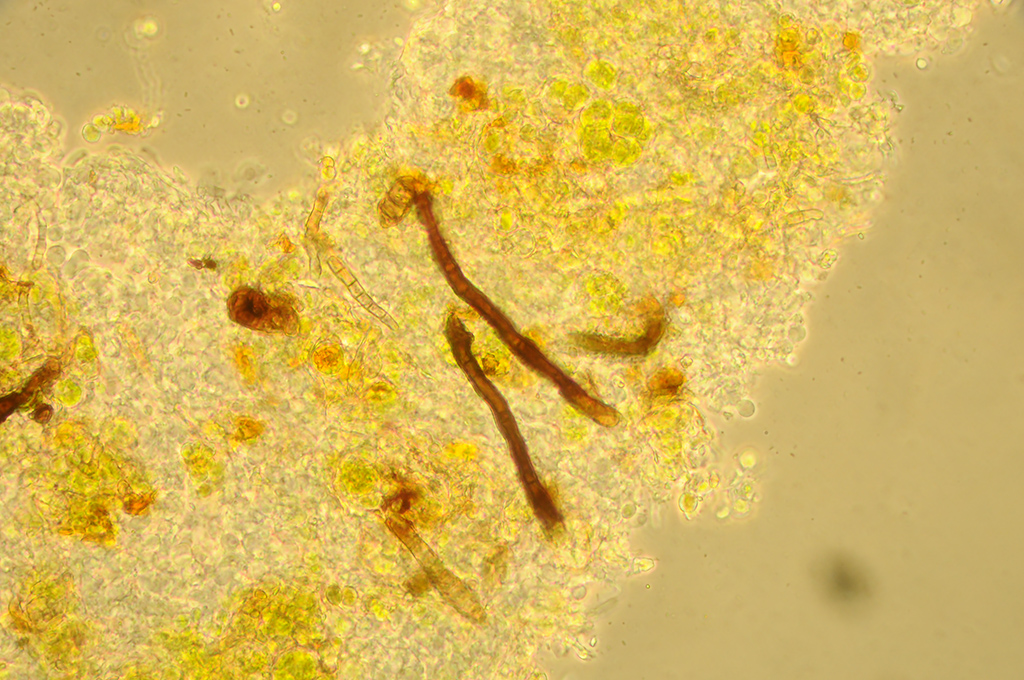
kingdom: Fungi
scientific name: Fungi
